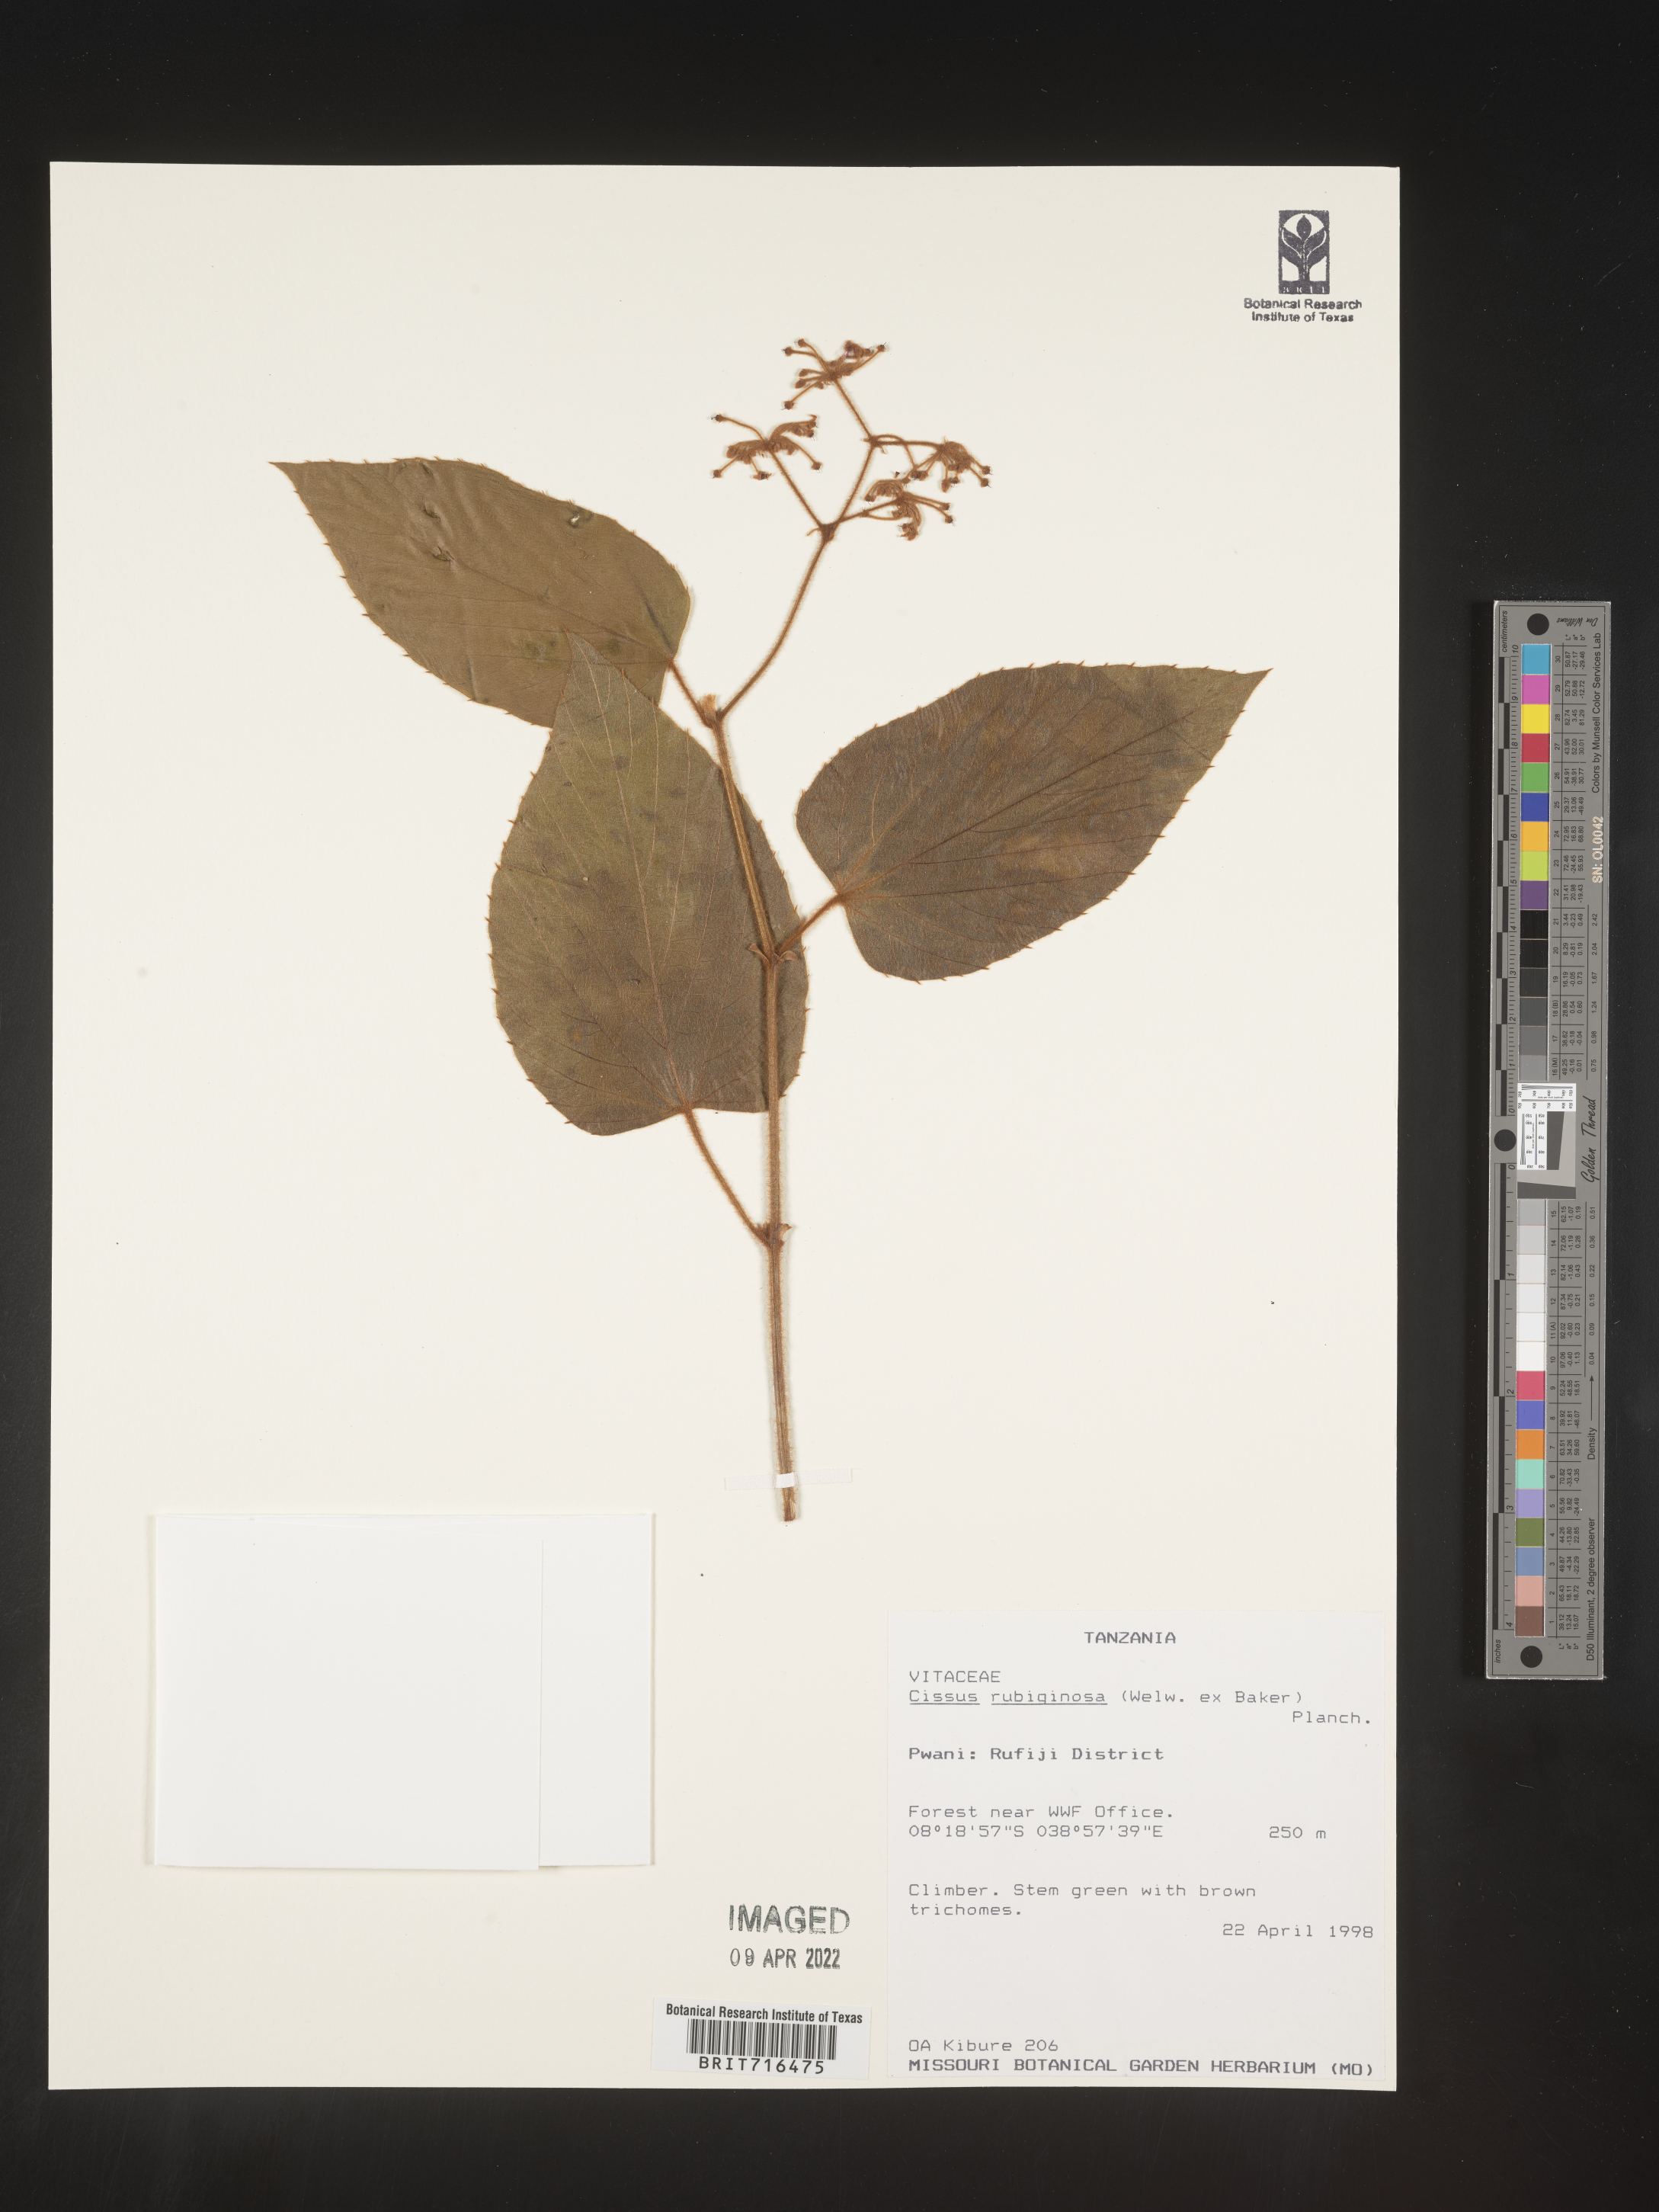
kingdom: Plantae
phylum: Tracheophyta
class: Magnoliopsida
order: Vitales
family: Vitaceae
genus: Cissus
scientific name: Cissus
